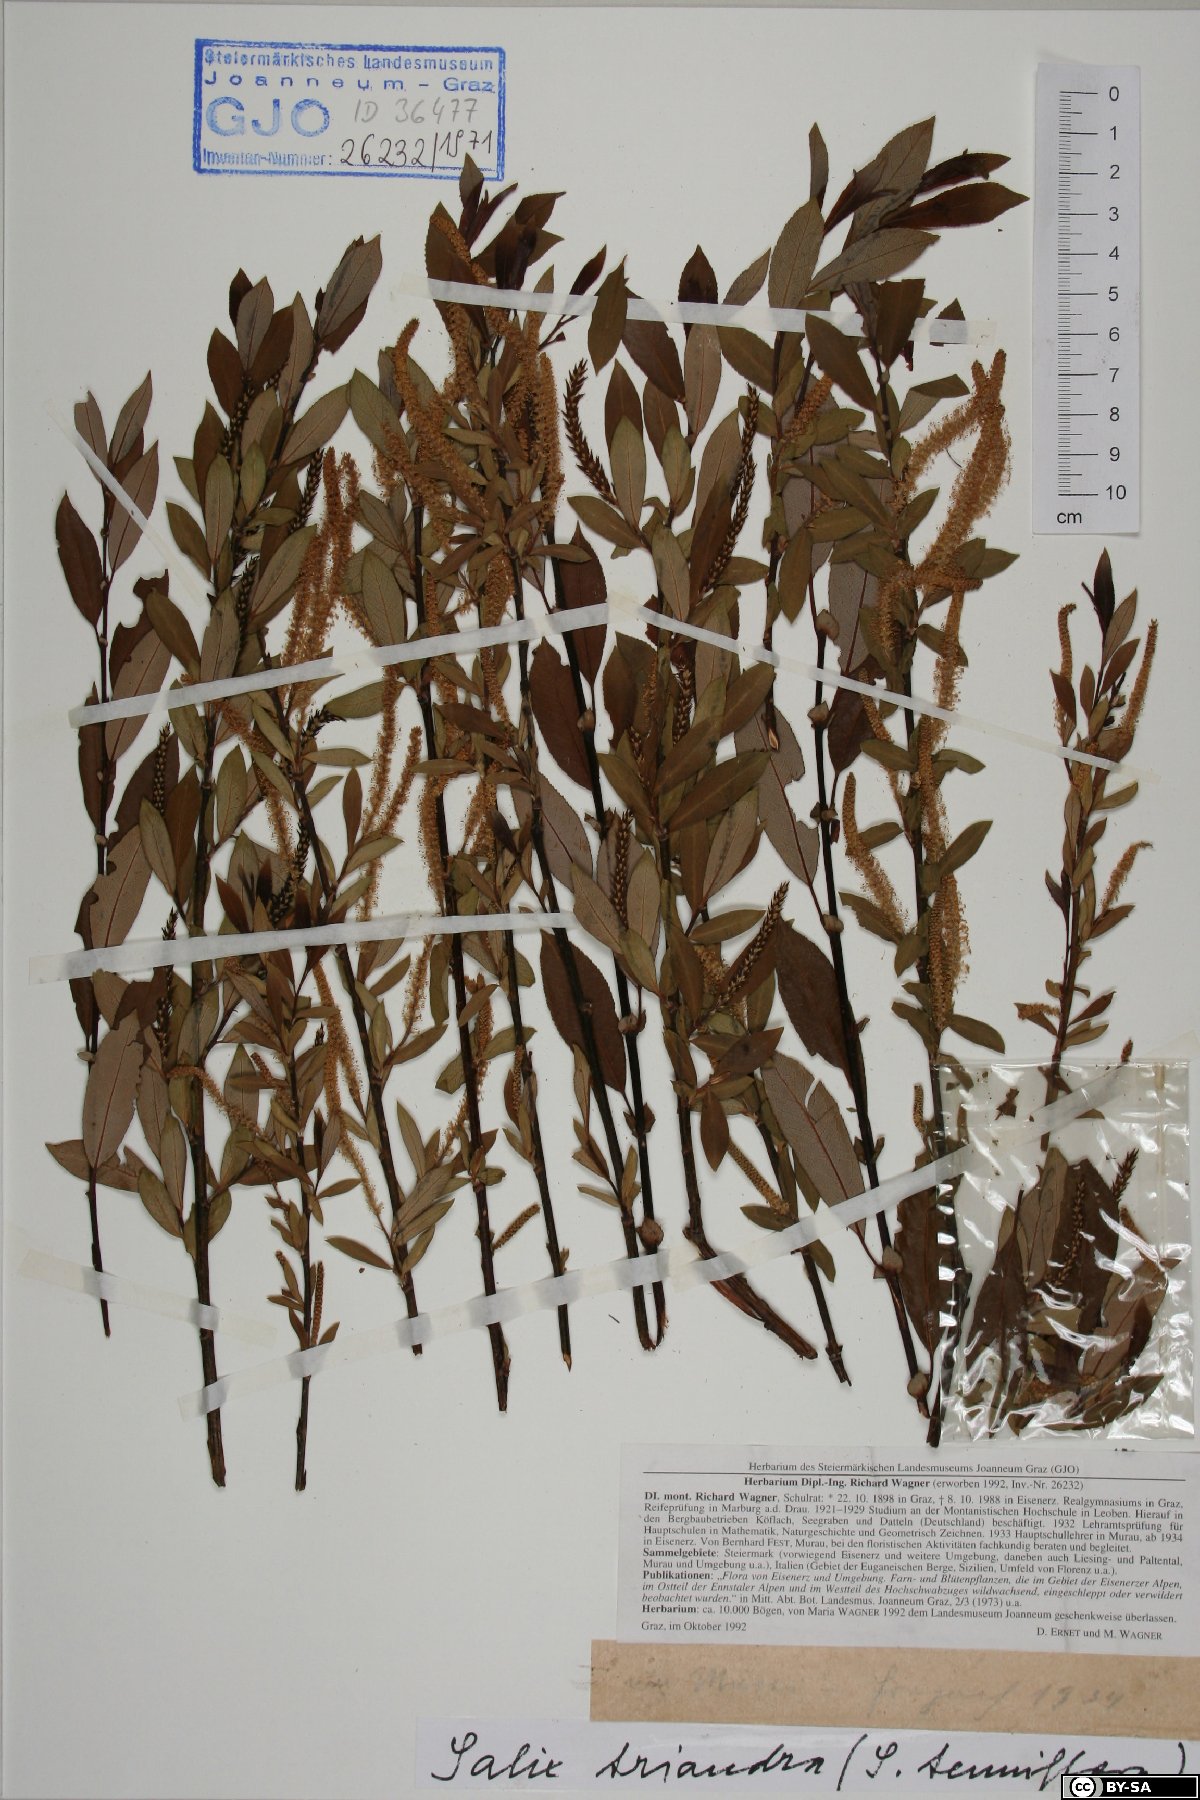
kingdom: Plantae
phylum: Tracheophyta
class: Magnoliopsida
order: Malpighiales
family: Salicaceae
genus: Salix
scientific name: Salix triandra
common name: Almond willow
